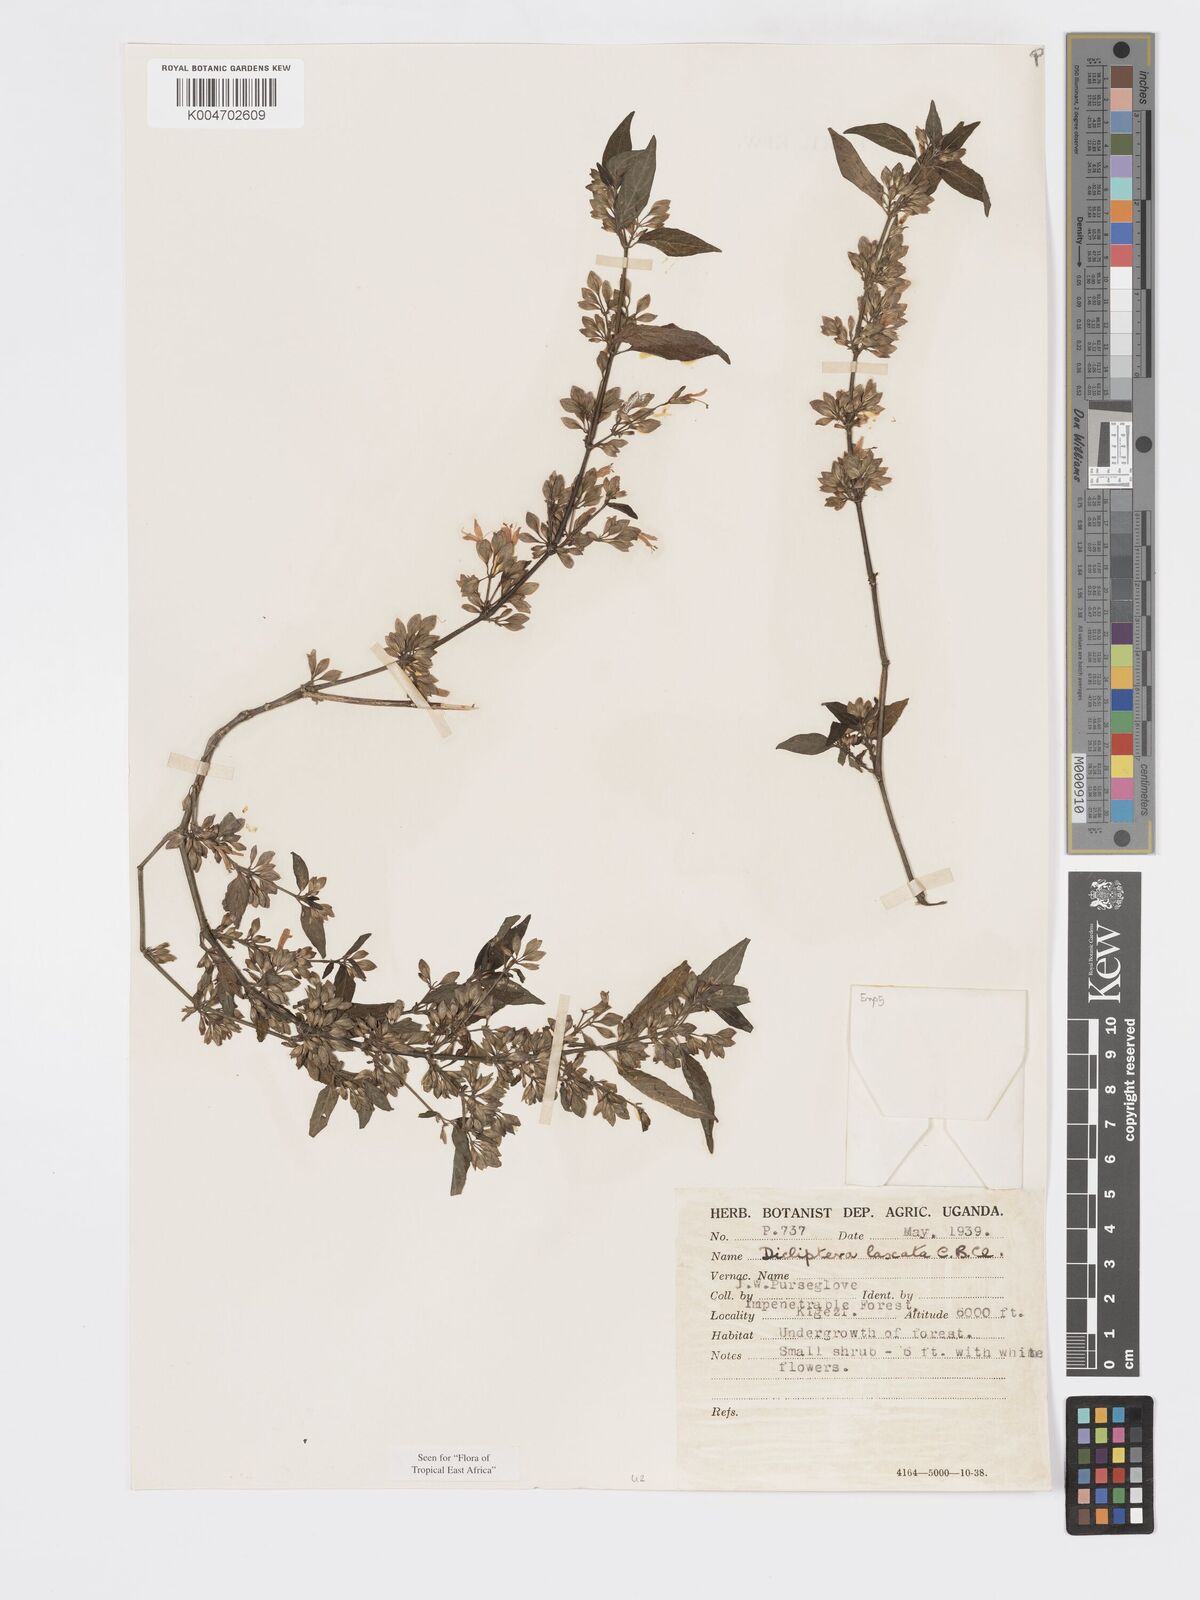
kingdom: Plantae
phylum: Tracheophyta
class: Magnoliopsida
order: Lamiales
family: Acanthaceae
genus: Dicliptera
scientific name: Dicliptera laxata
